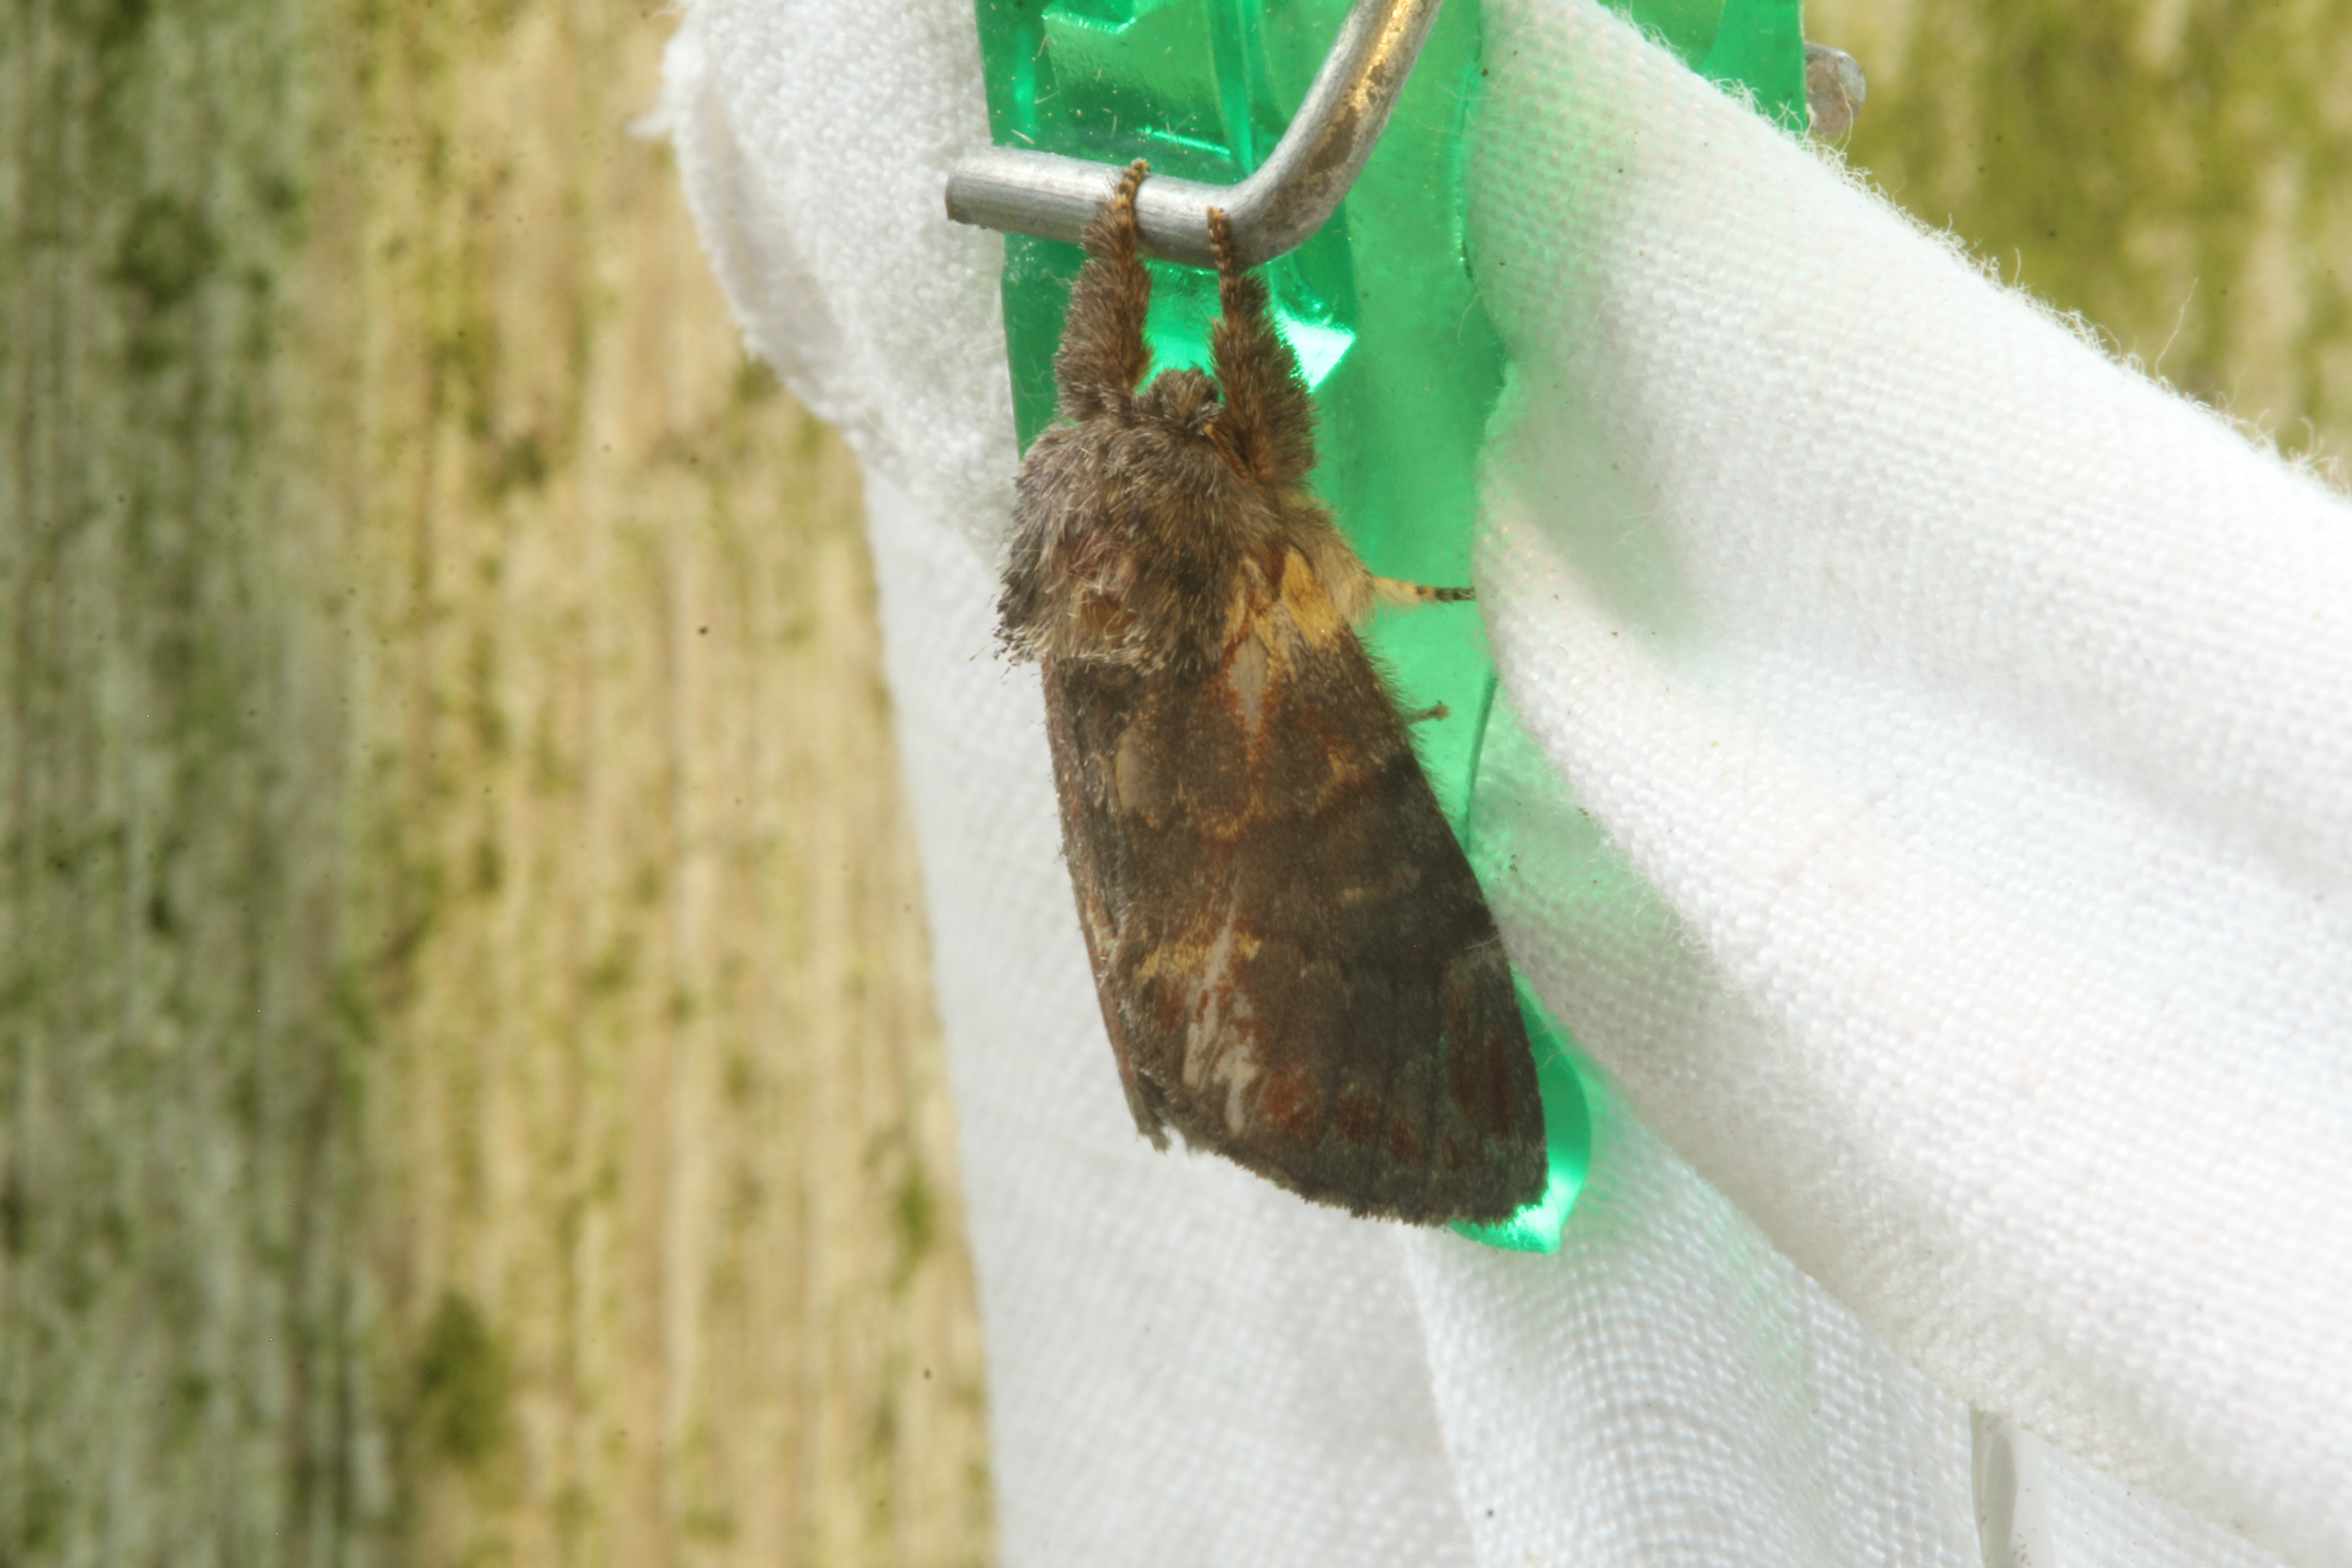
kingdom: Animalia
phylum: Arthropoda
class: Insecta
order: Lepidoptera
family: Notodontidae
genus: Notodonta
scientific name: Notodonta dromedarius
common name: Iron prominent
